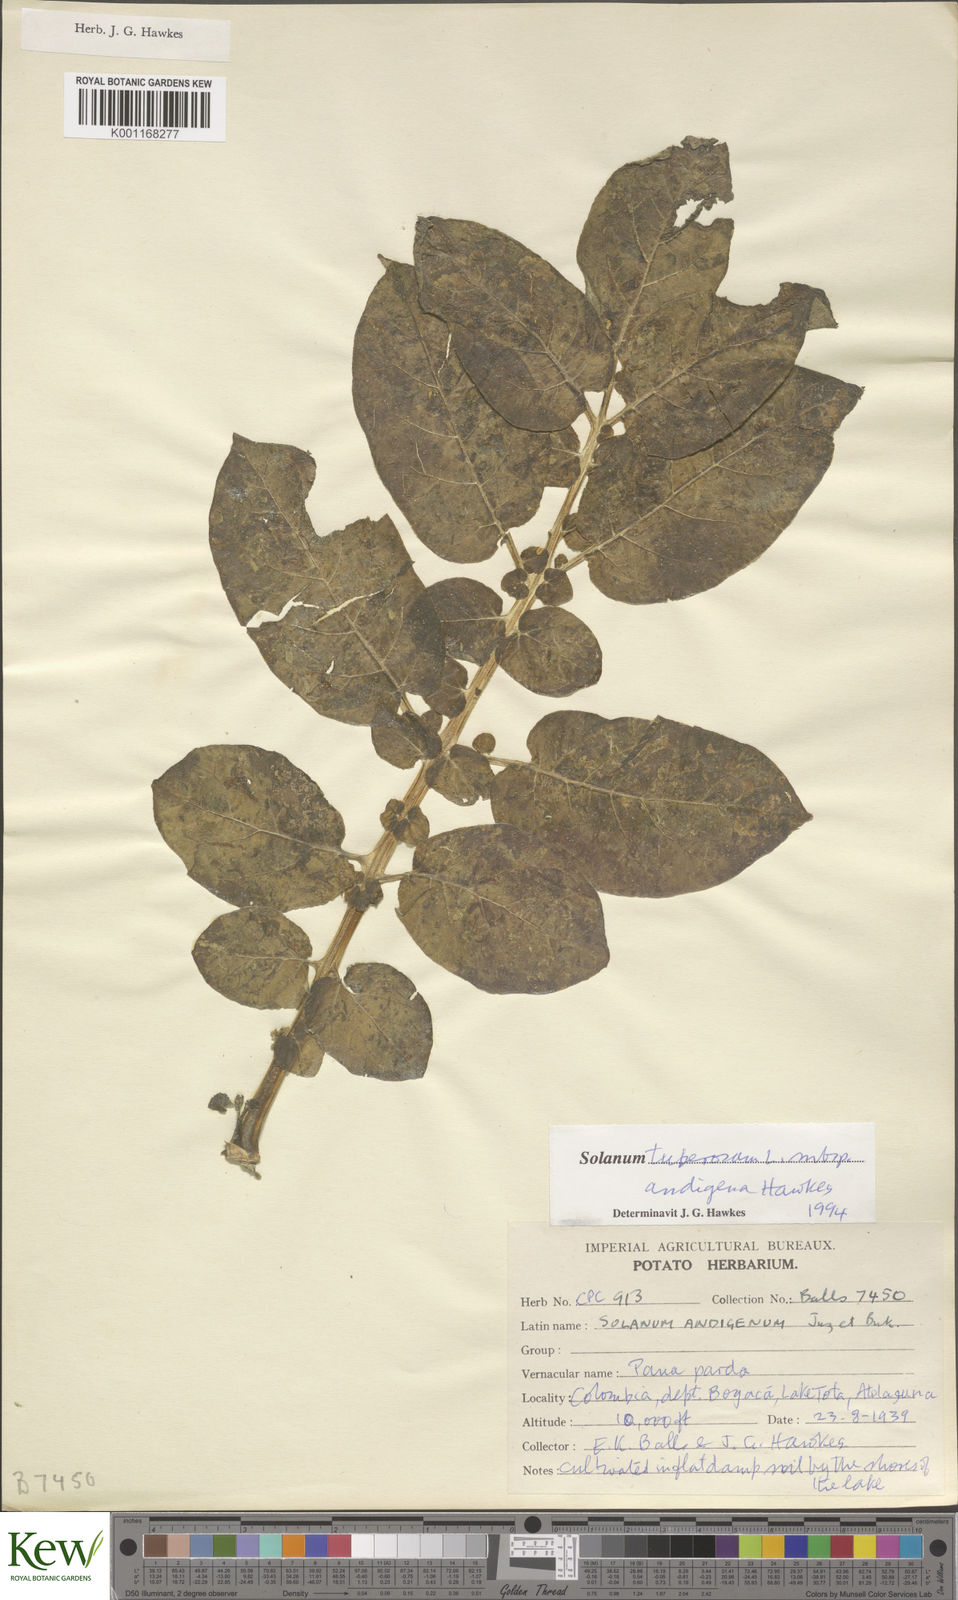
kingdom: Plantae
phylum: Tracheophyta
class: Magnoliopsida
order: Solanales
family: Solanaceae
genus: Solanum
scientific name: Solanum tuberosum
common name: Potato
